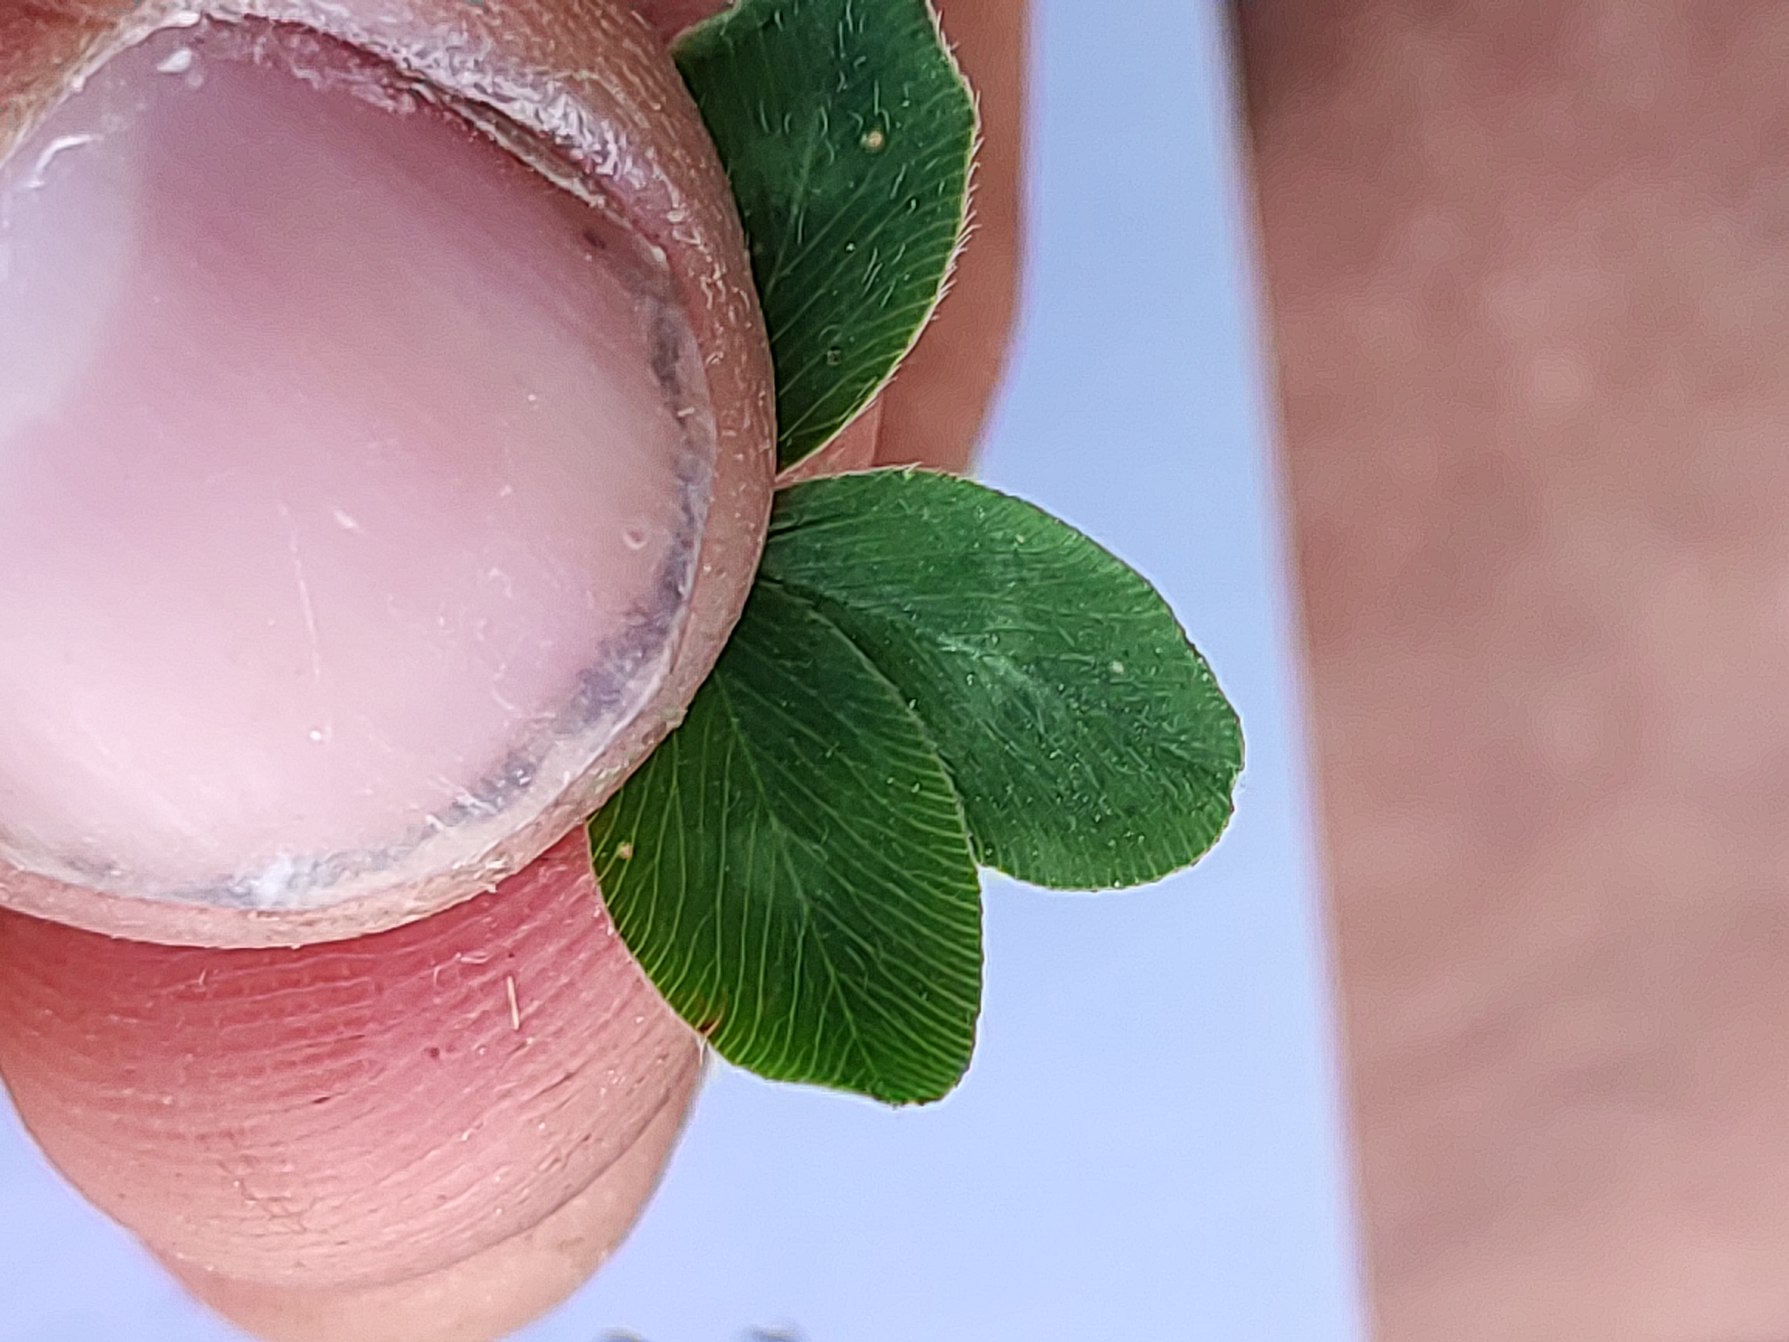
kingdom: Plantae
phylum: Tracheophyta
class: Magnoliopsida
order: Fabales
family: Fabaceae
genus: Trifolium
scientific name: Trifolium pratense
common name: Rød-kløver
